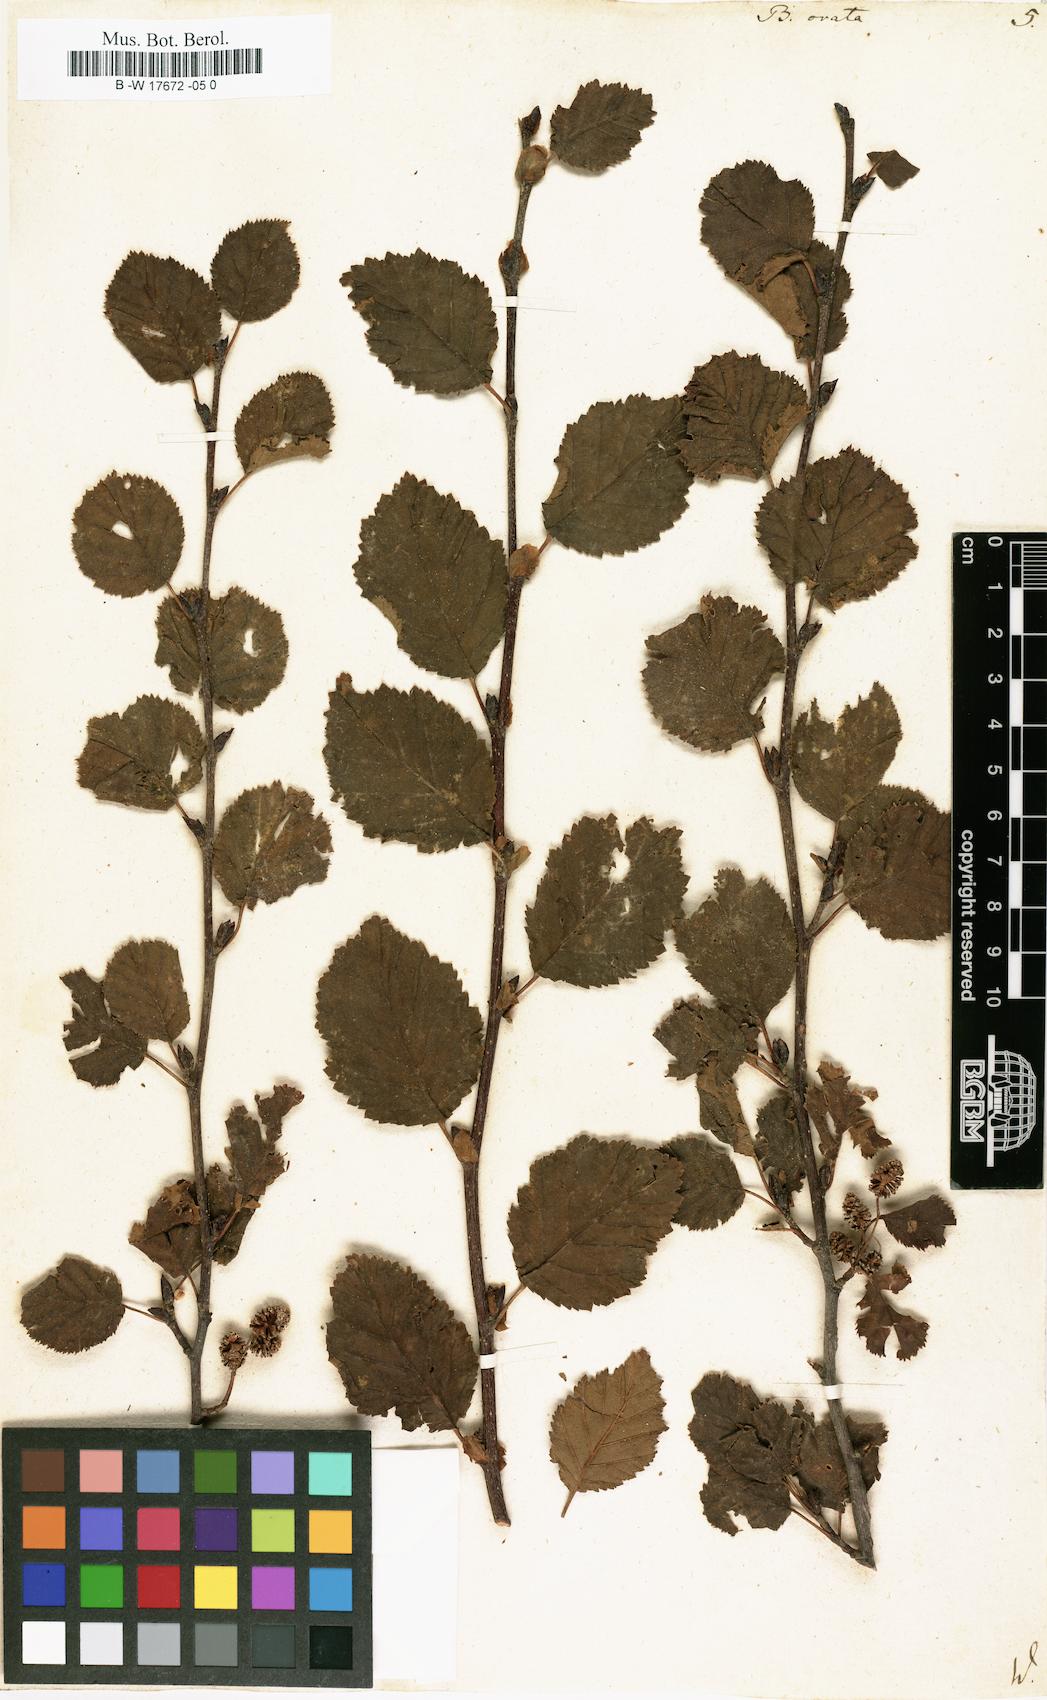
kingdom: Plantae
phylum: Tracheophyta
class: Magnoliopsida
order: Fagales
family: Betulaceae
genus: Betula
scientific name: Betula pubescens
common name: Downy birch
